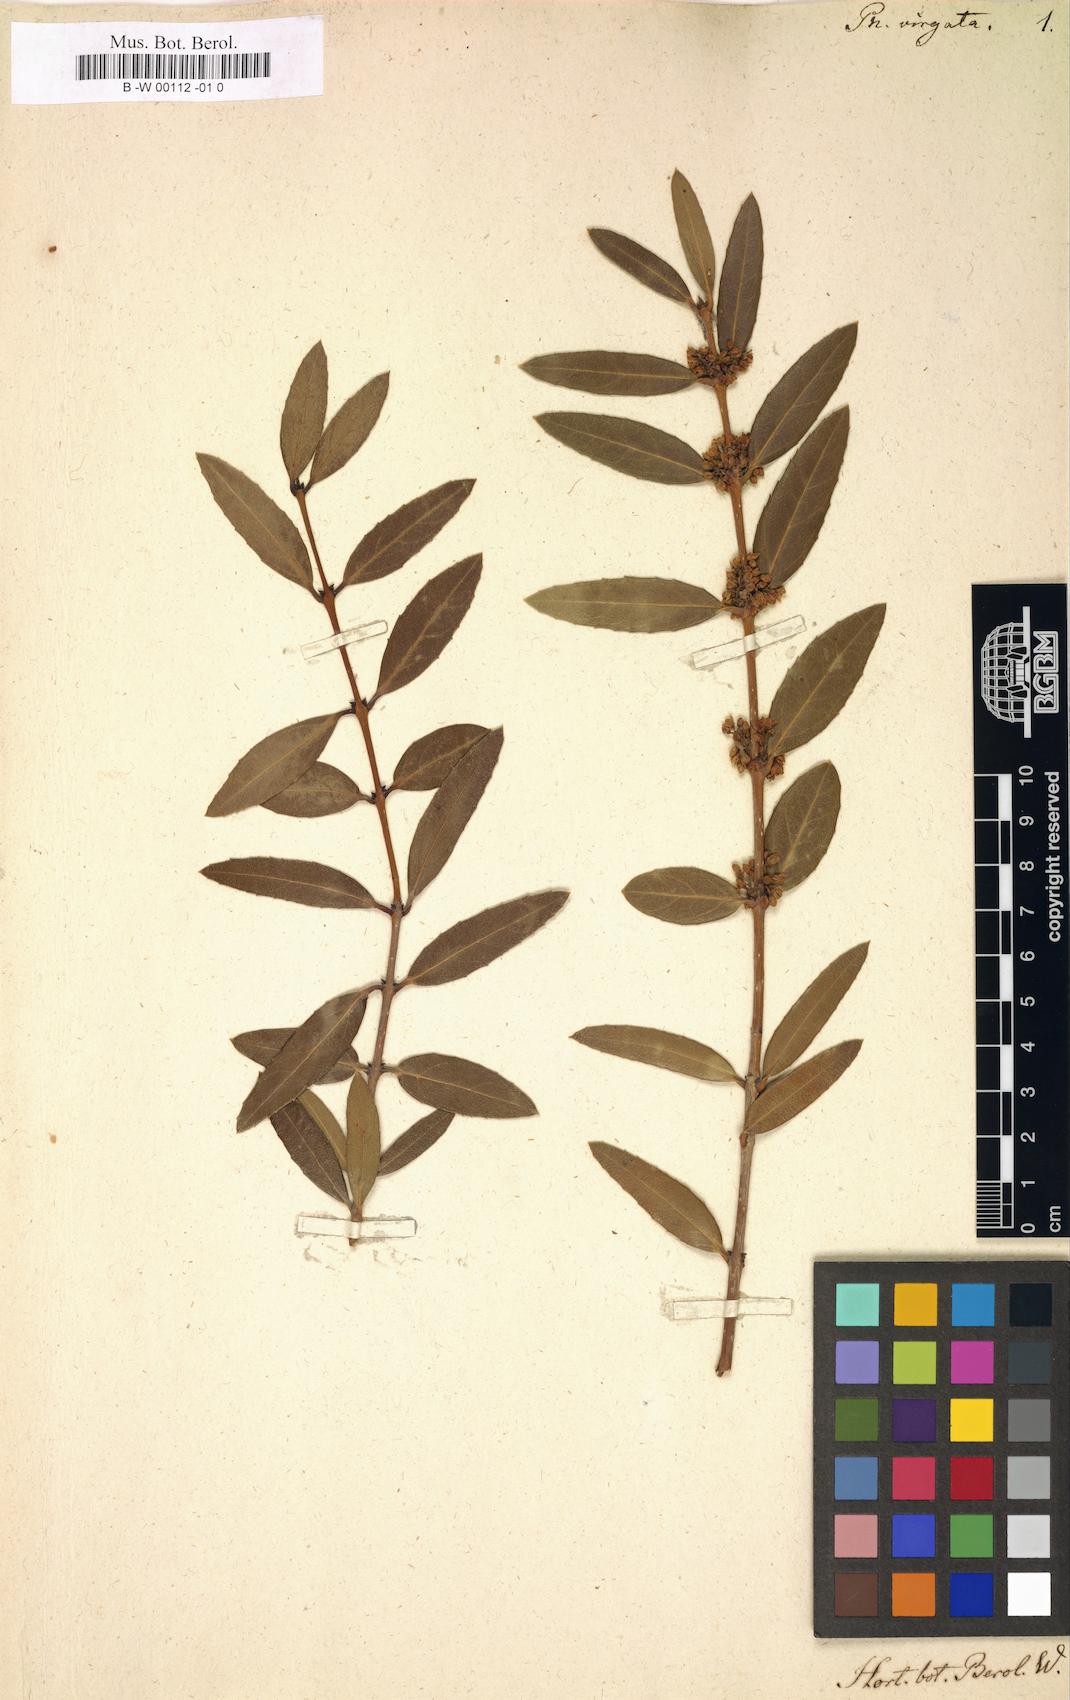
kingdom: Plantae
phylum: Tracheophyta
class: Magnoliopsida
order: Lamiales
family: Oleaceae
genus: Phillyrea
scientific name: Phillyrea latifolia
